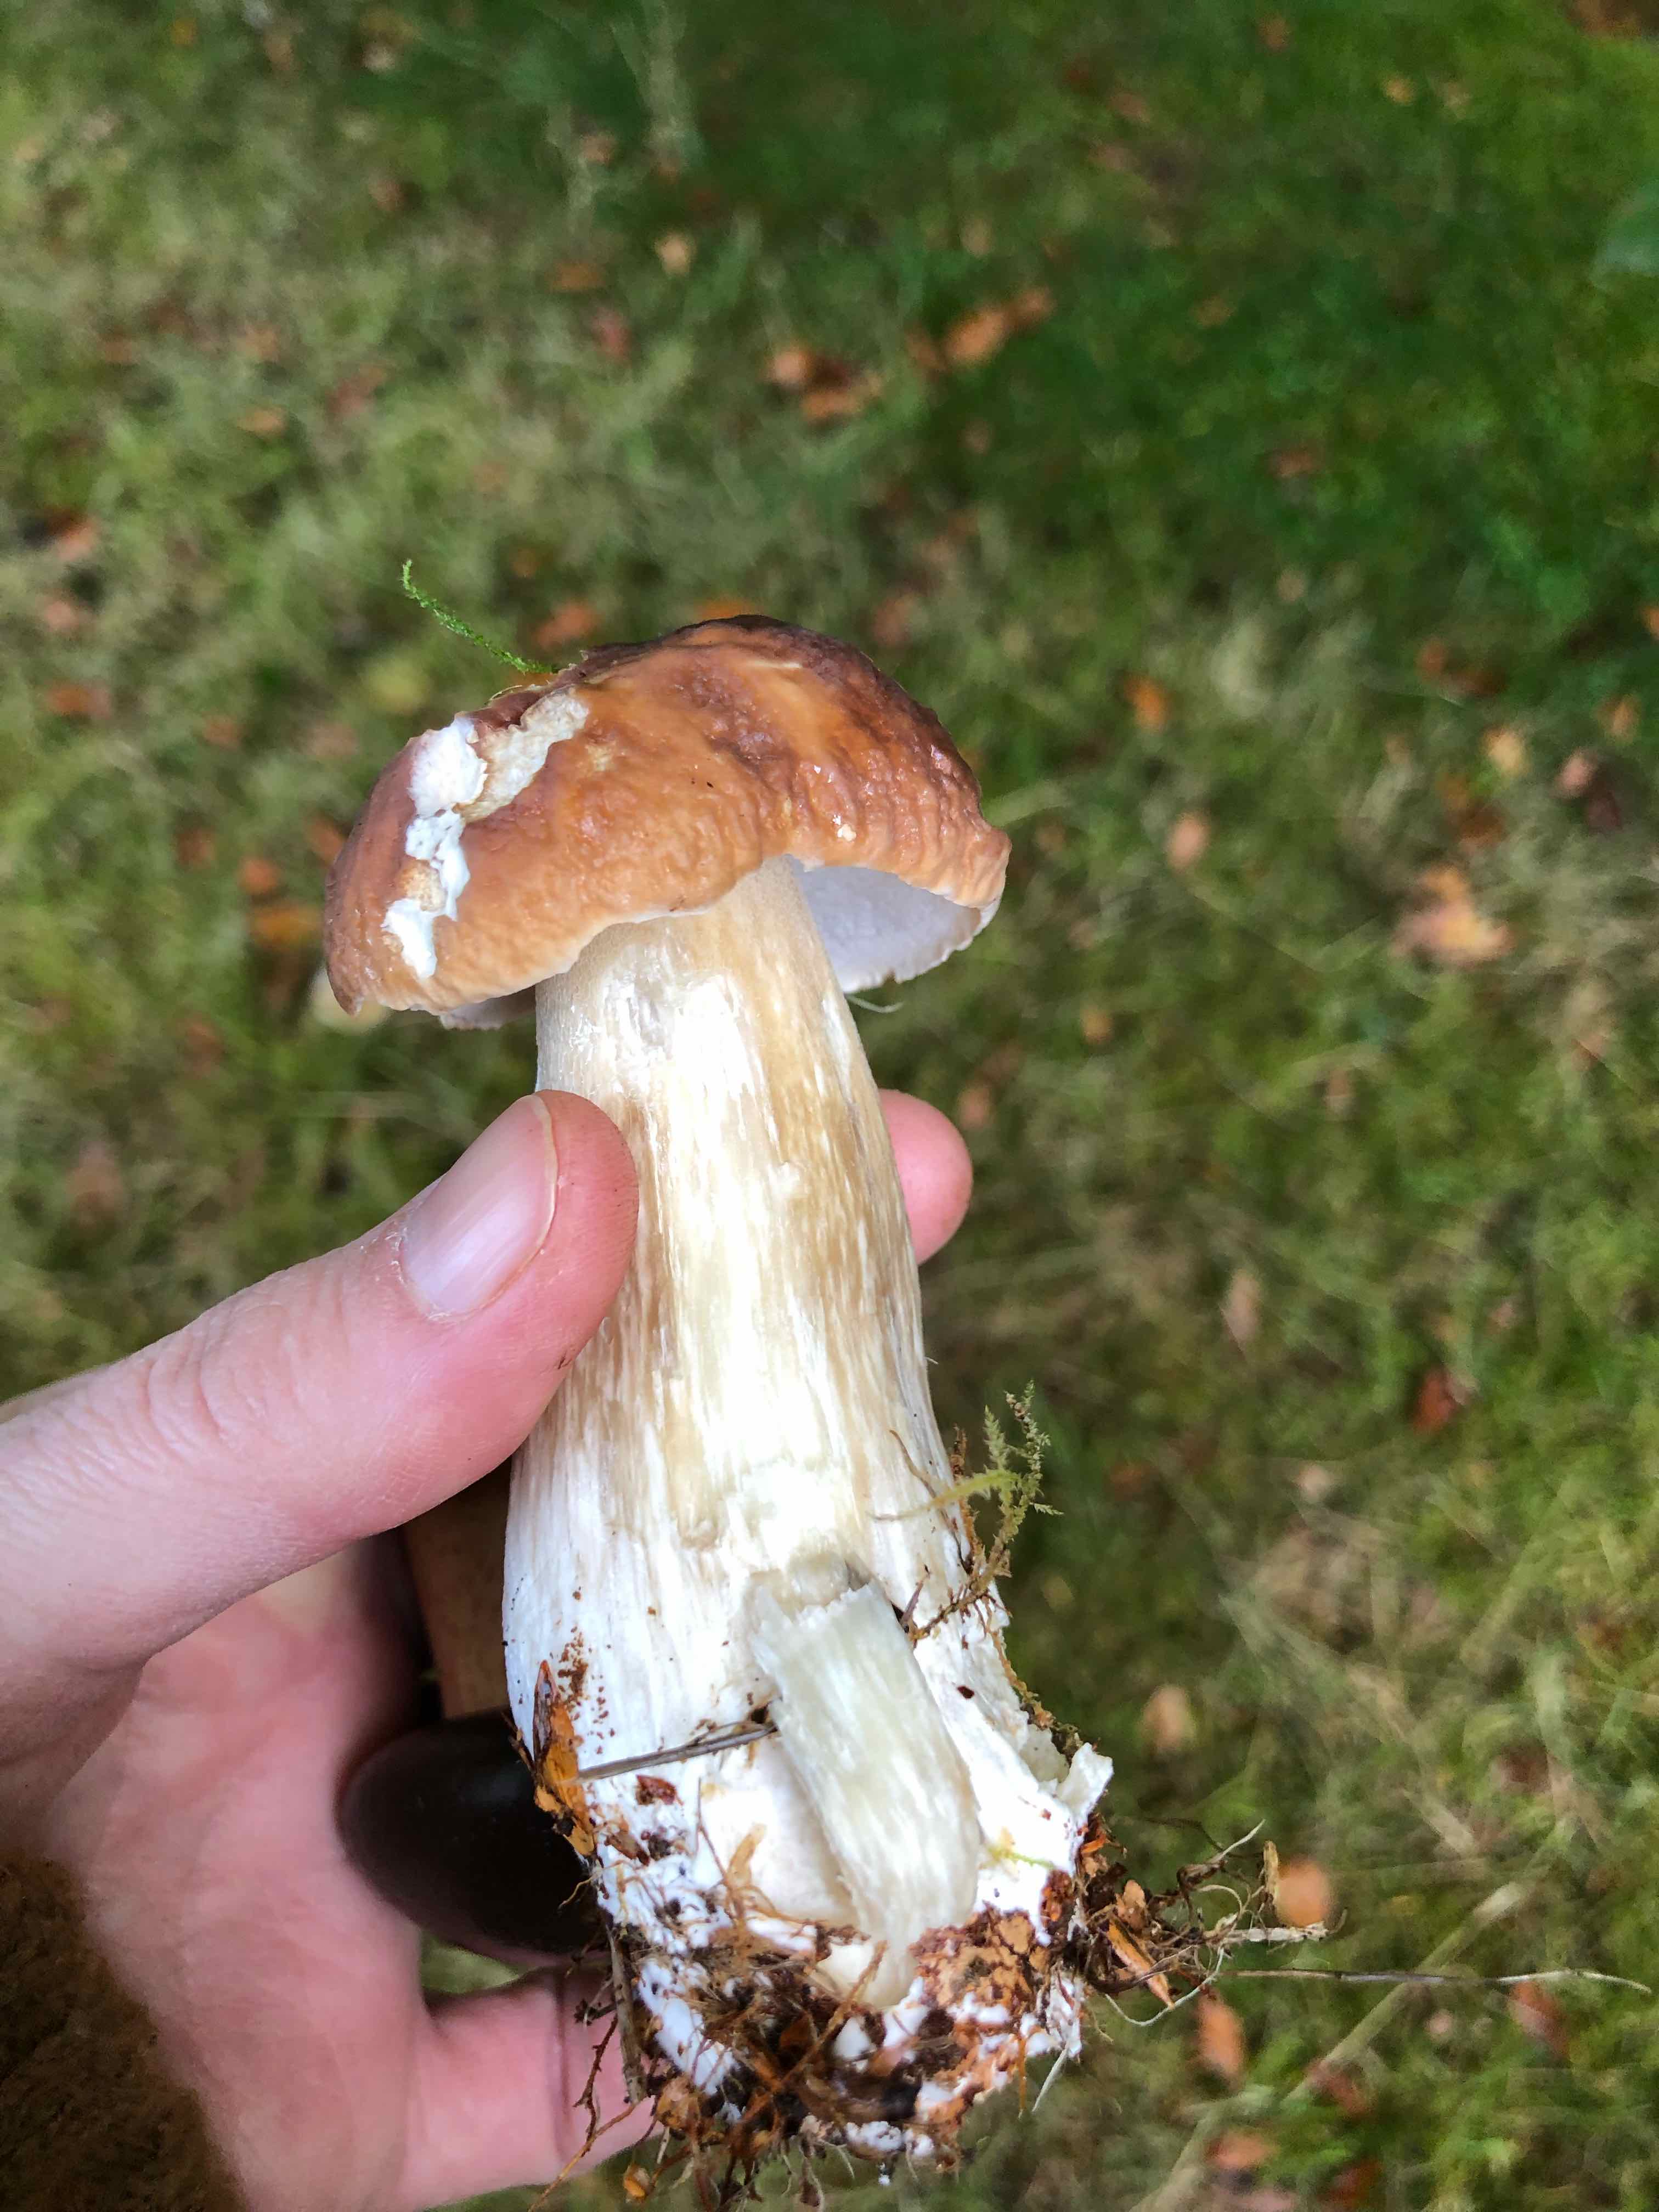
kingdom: Fungi
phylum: Basidiomycota
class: Agaricomycetes
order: Boletales
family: Boletaceae
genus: Boletus
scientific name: Boletus edulis
